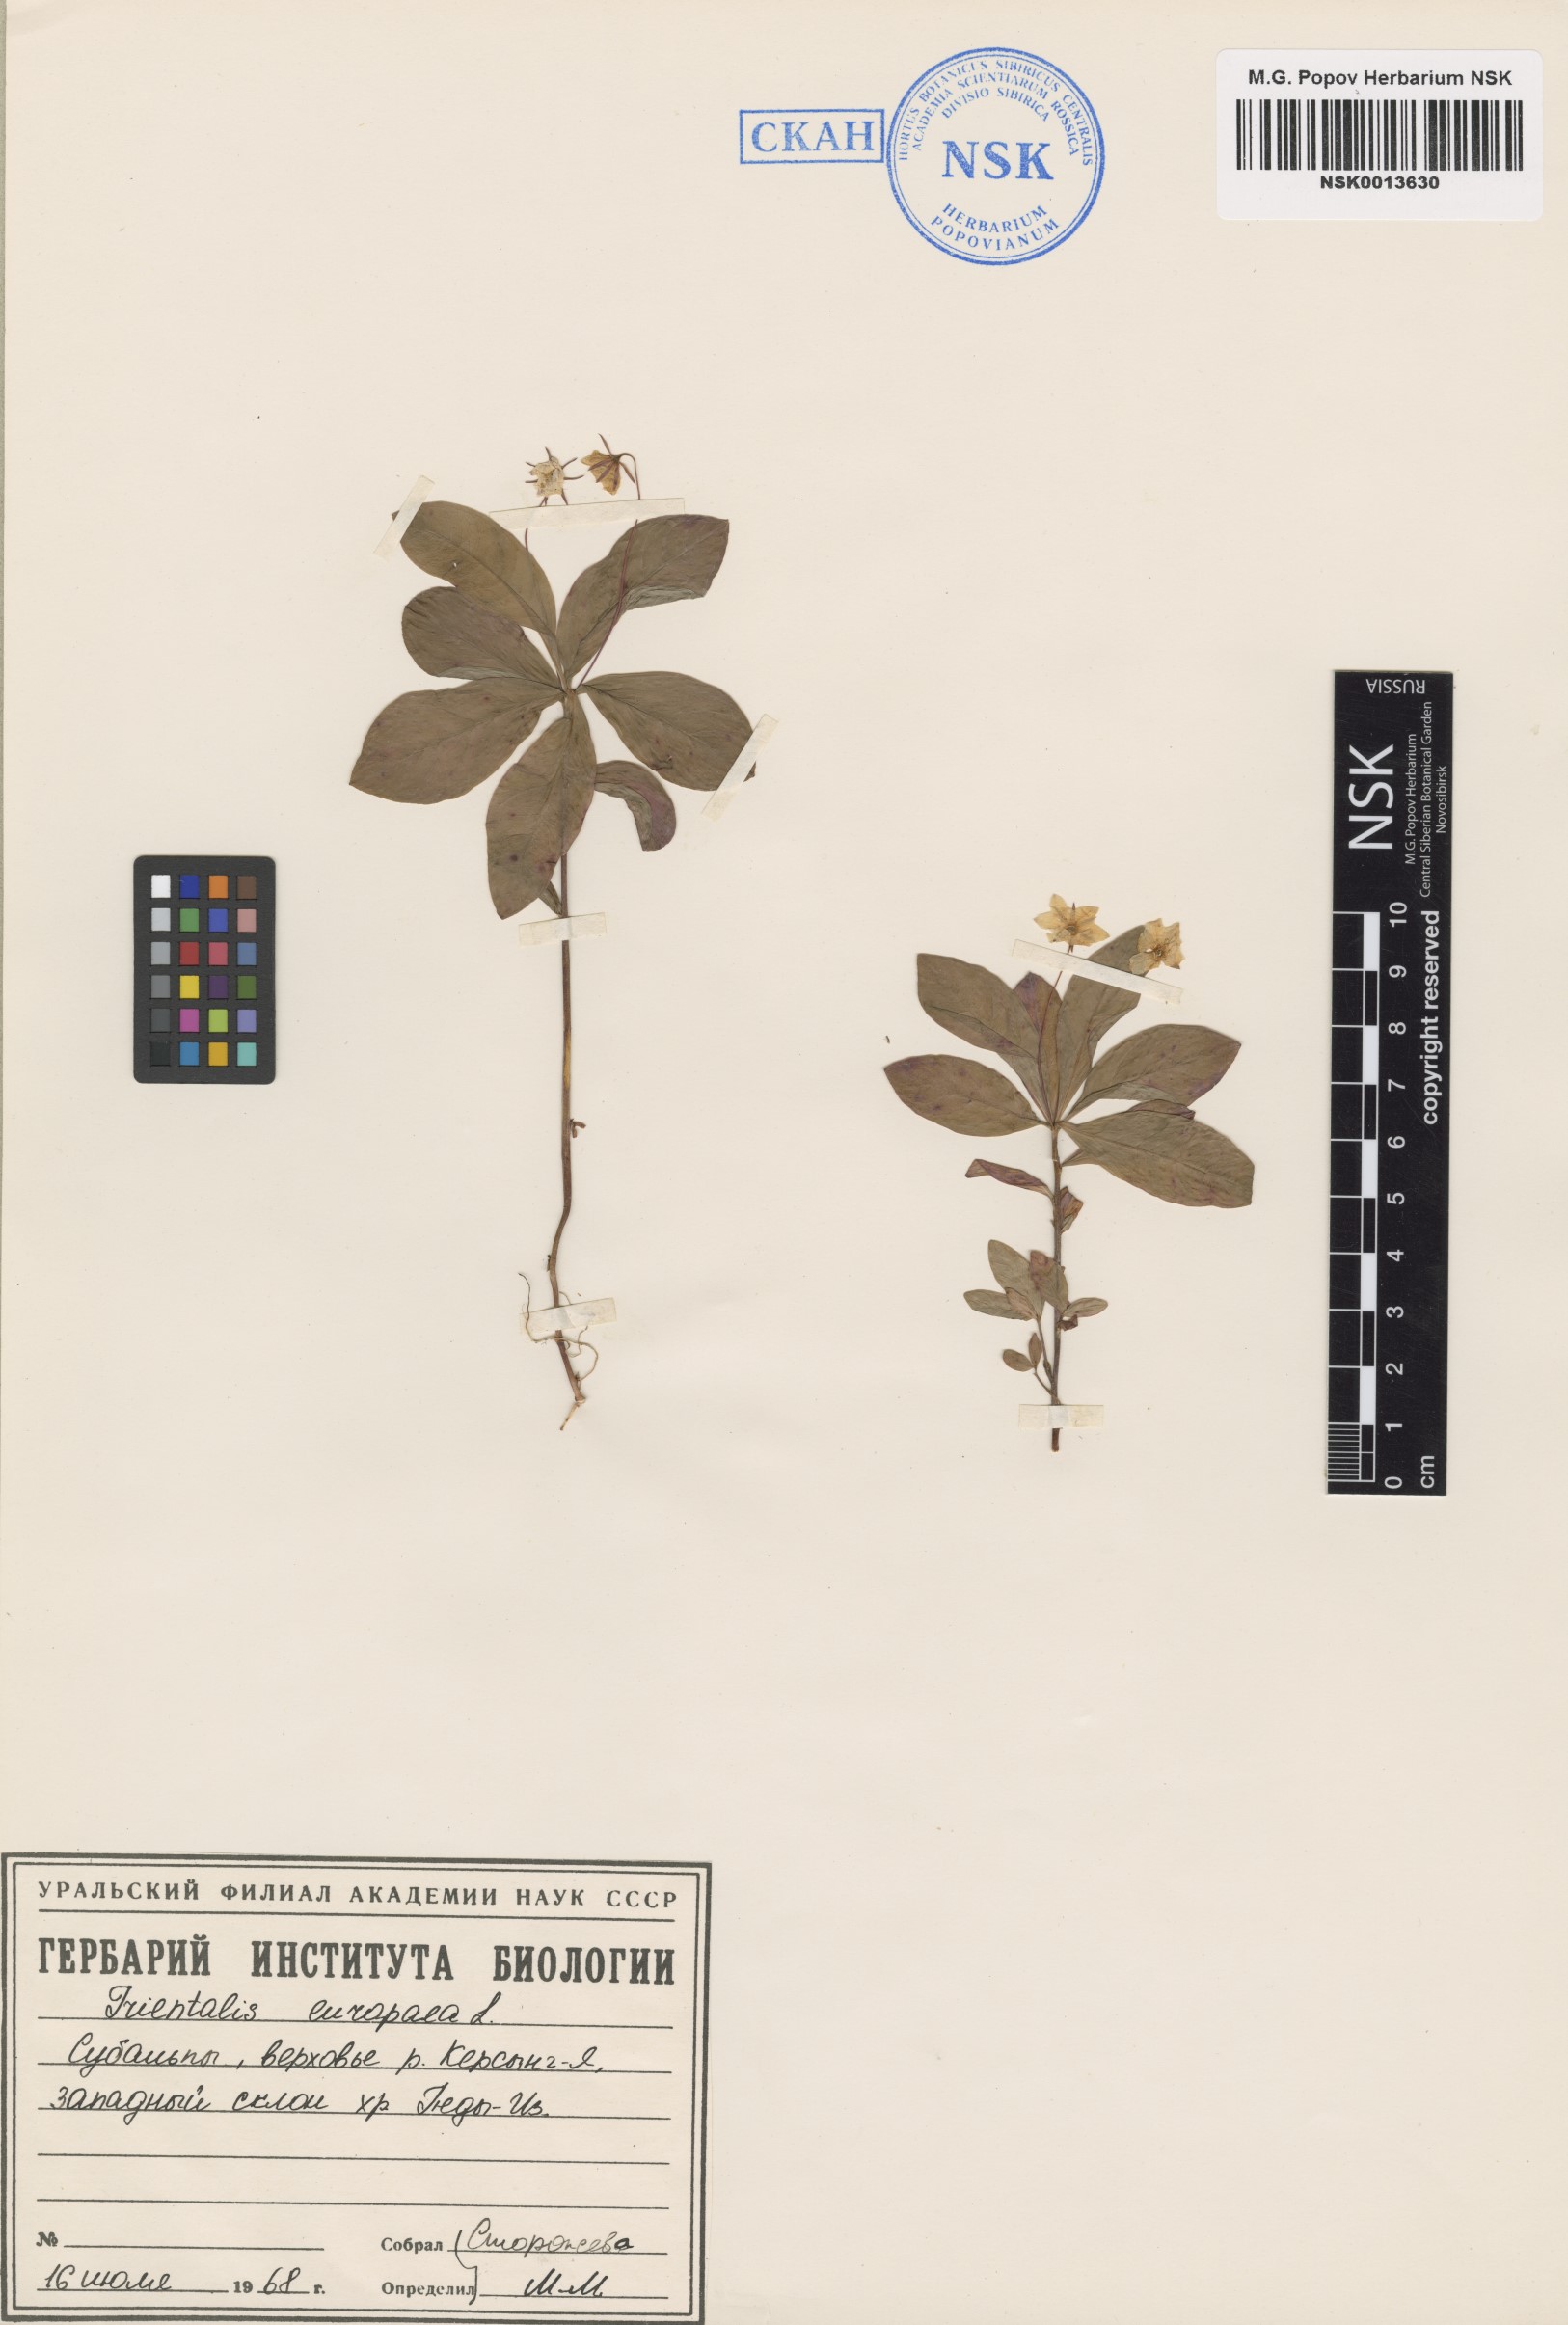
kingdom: Plantae
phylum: Tracheophyta
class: Magnoliopsida
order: Ericales
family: Primulaceae
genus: Lysimachia
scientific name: Lysimachia europaea
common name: Arctic starflower
